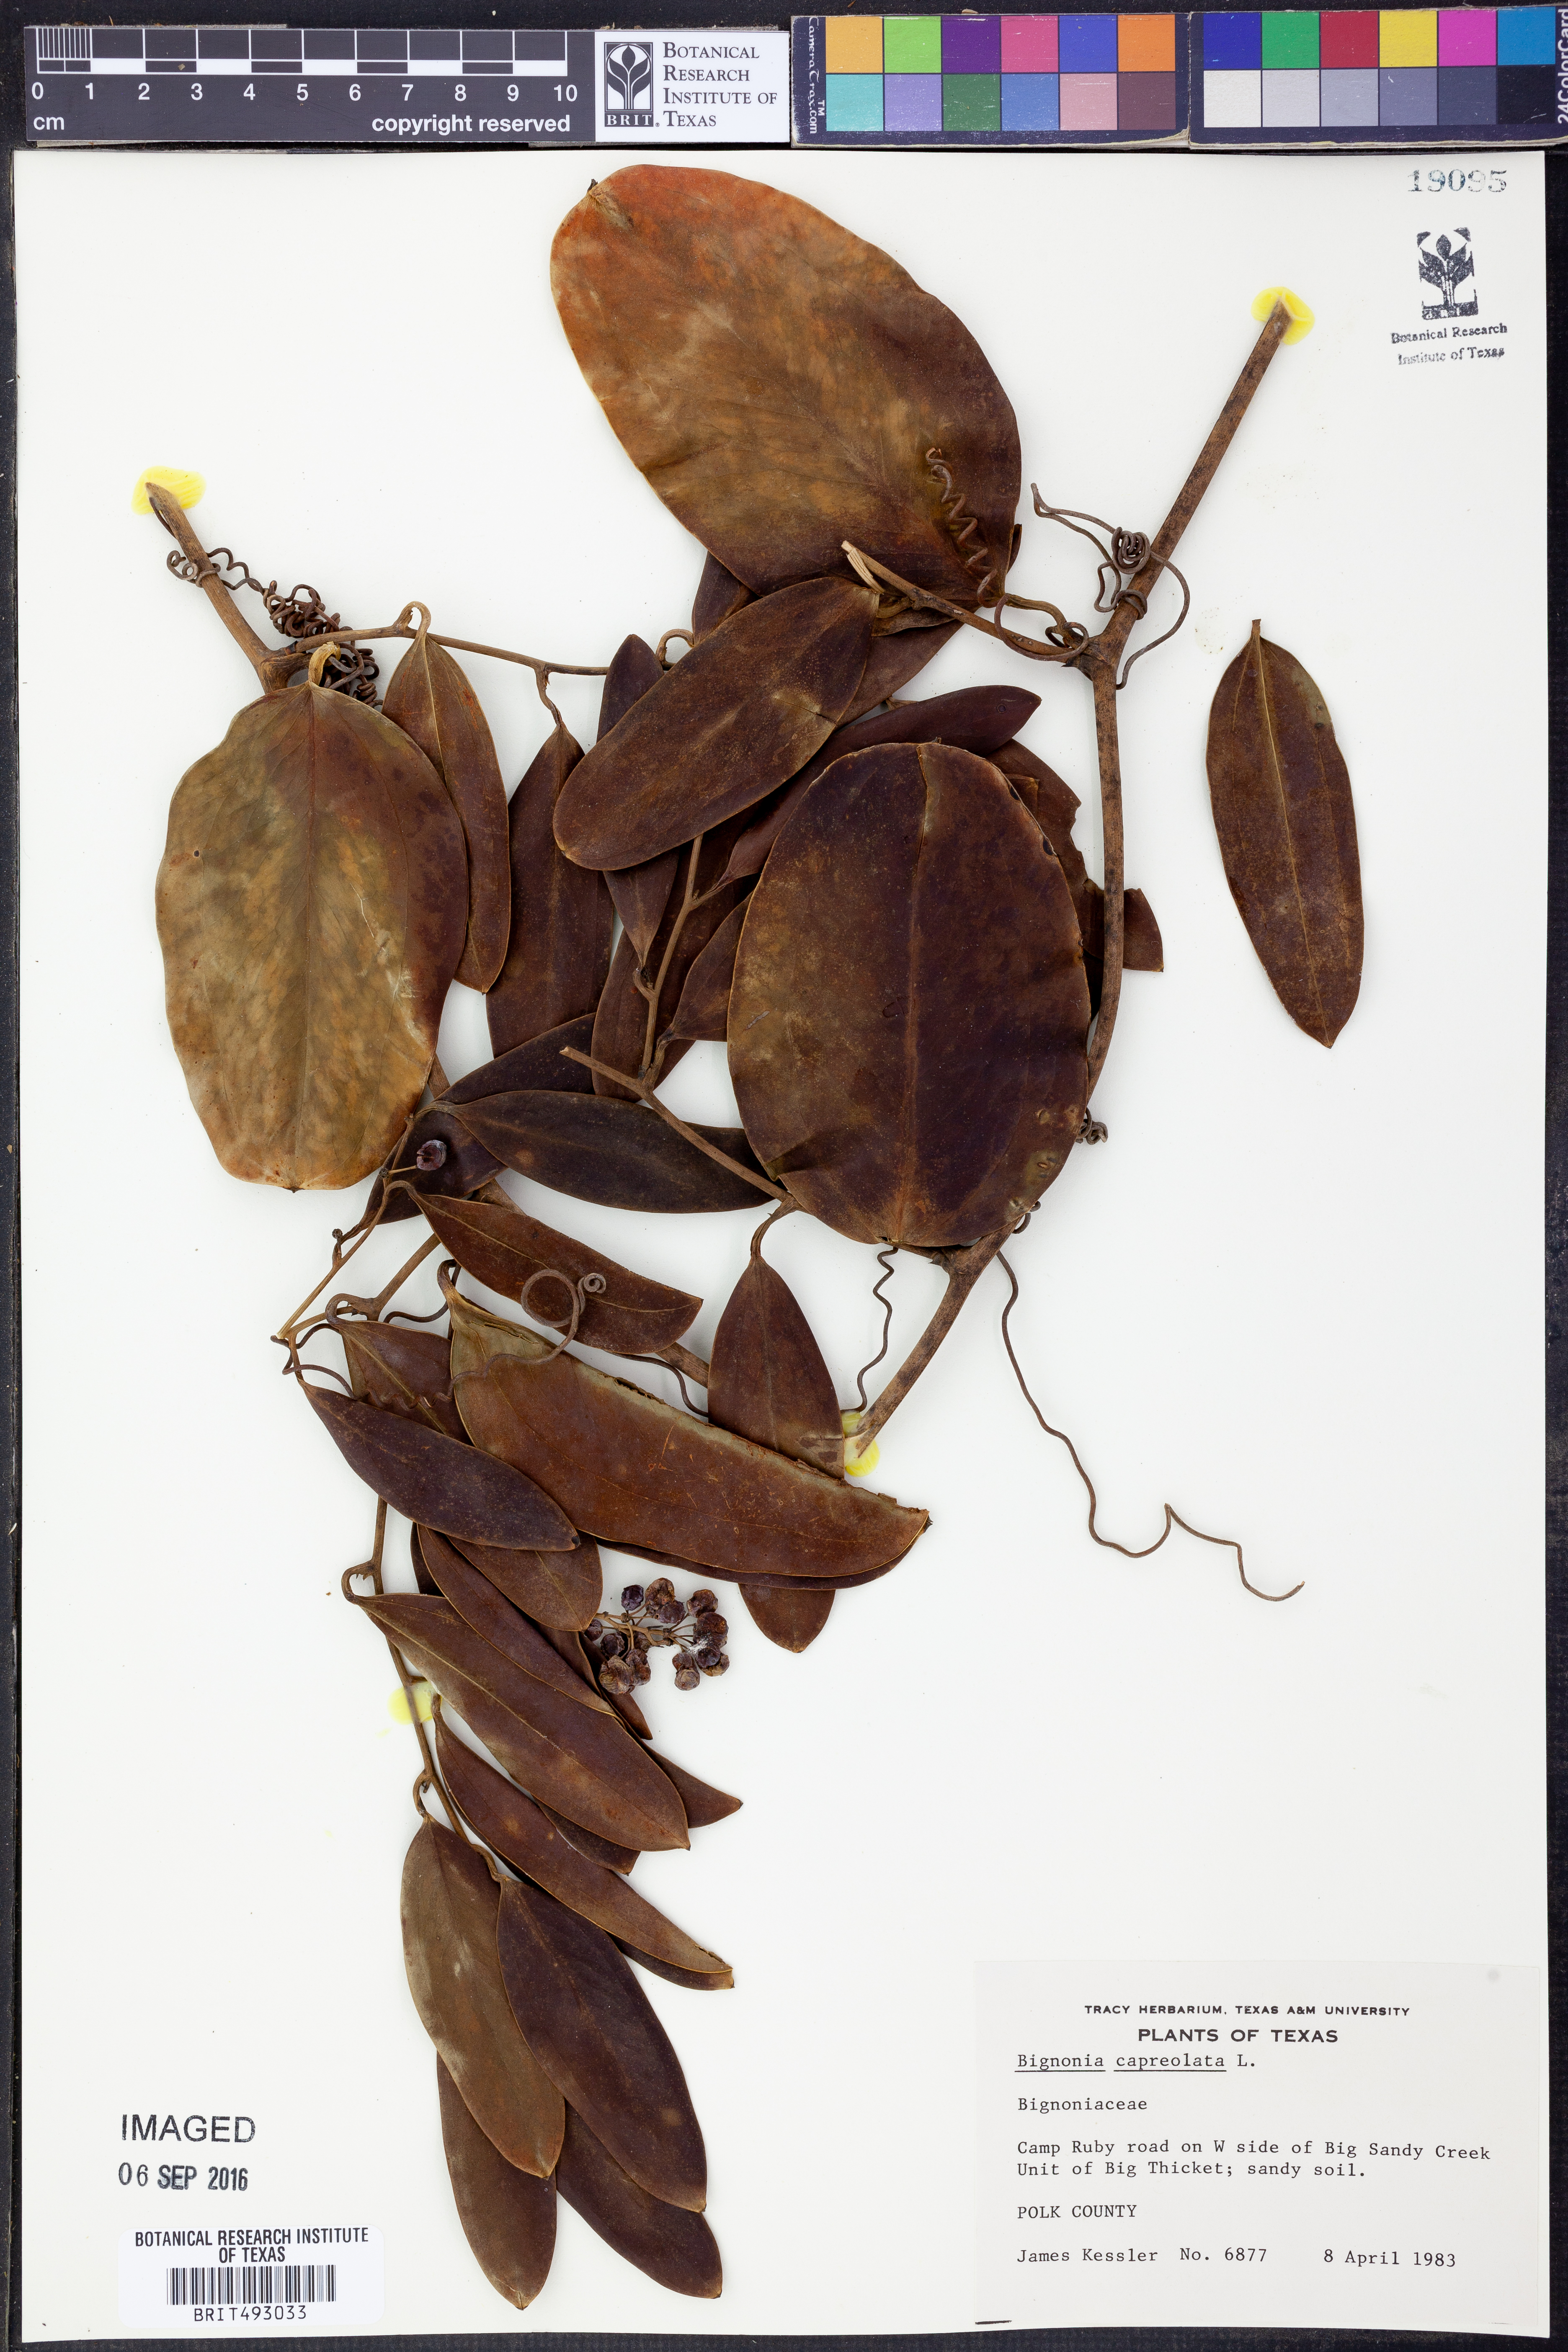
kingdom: Plantae
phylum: Tracheophyta
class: Magnoliopsida
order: Lamiales
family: Bignoniaceae
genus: Bignonia
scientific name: Bignonia capreolata
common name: Crossvine
